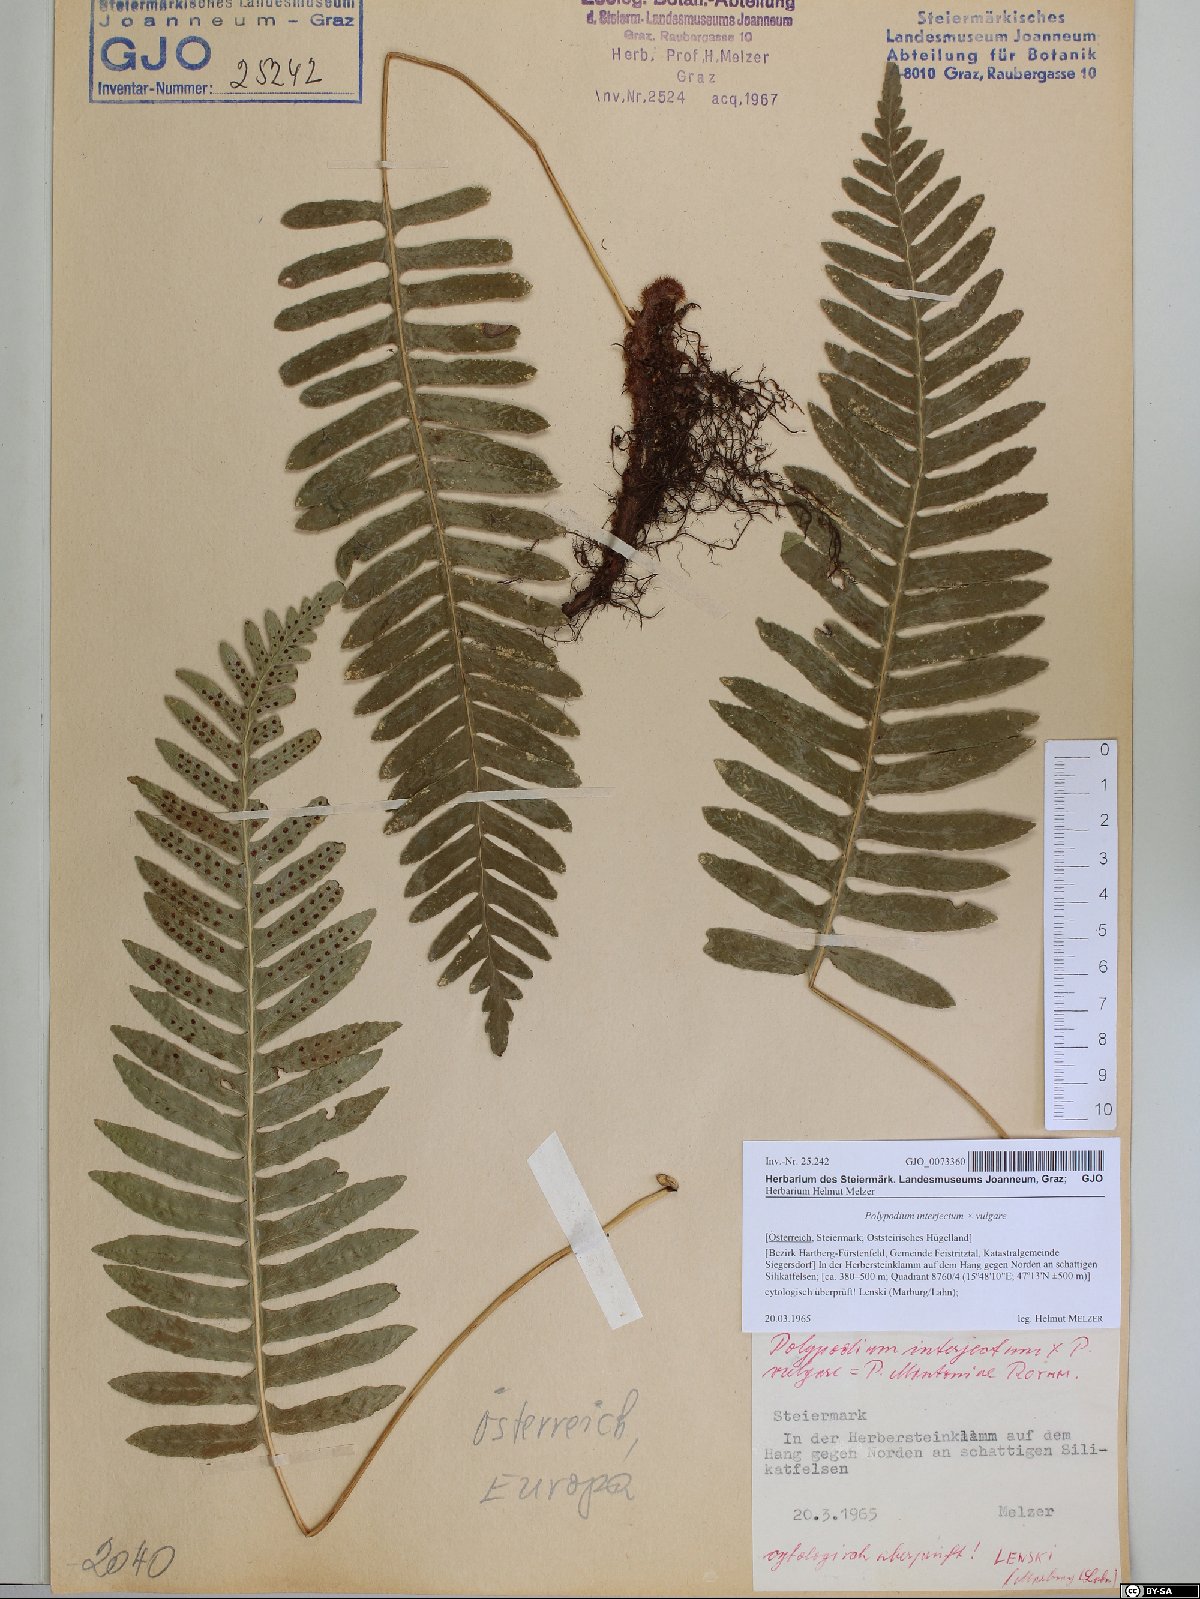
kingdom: Plantae
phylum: Tracheophyta
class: Polypodiopsida
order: Polypodiales
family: Polypodiaceae
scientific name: Polypodiaceae
